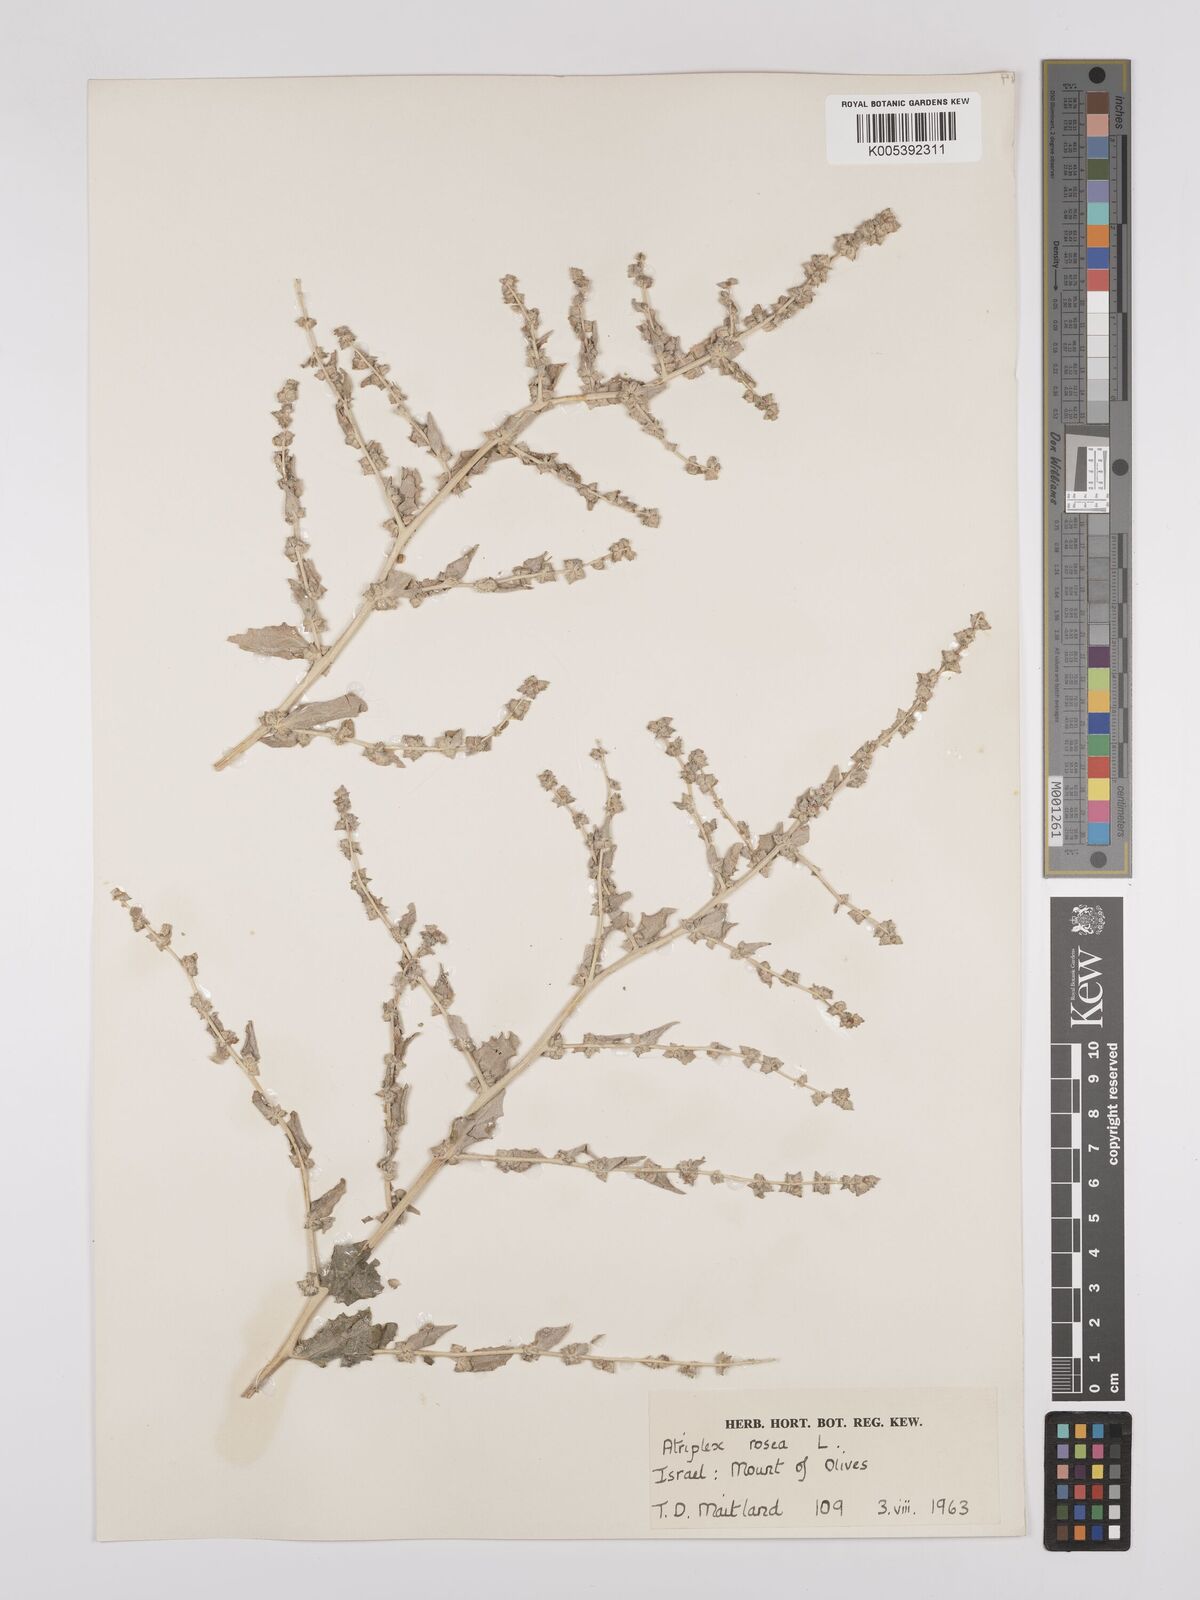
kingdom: Plantae
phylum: Tracheophyta
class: Magnoliopsida
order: Caryophyllales
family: Amaranthaceae
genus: Atriplex
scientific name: Atriplex
